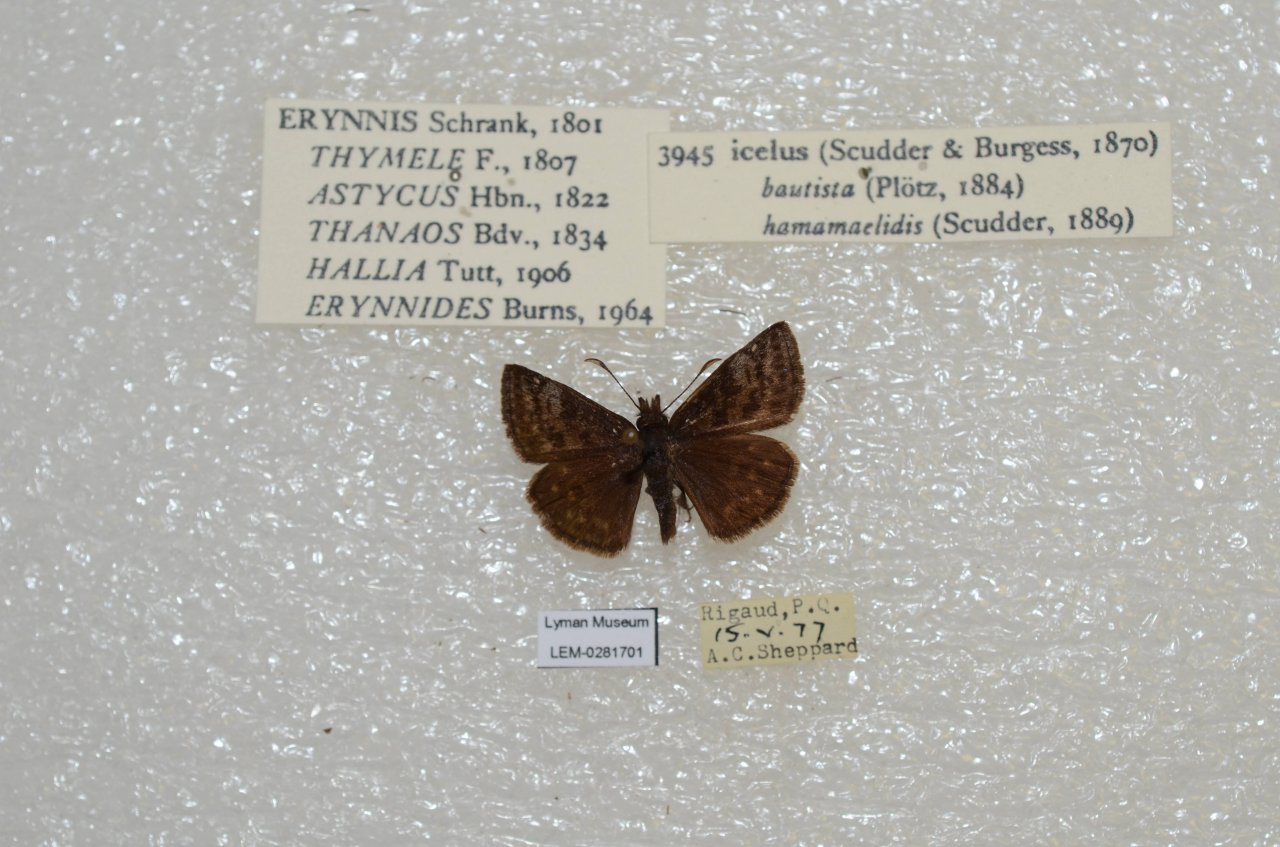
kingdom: Animalia
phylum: Arthropoda
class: Insecta
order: Lepidoptera
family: Hesperiidae
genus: Erynnis
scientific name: Erynnis icelus
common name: Dreamy Duskywing
